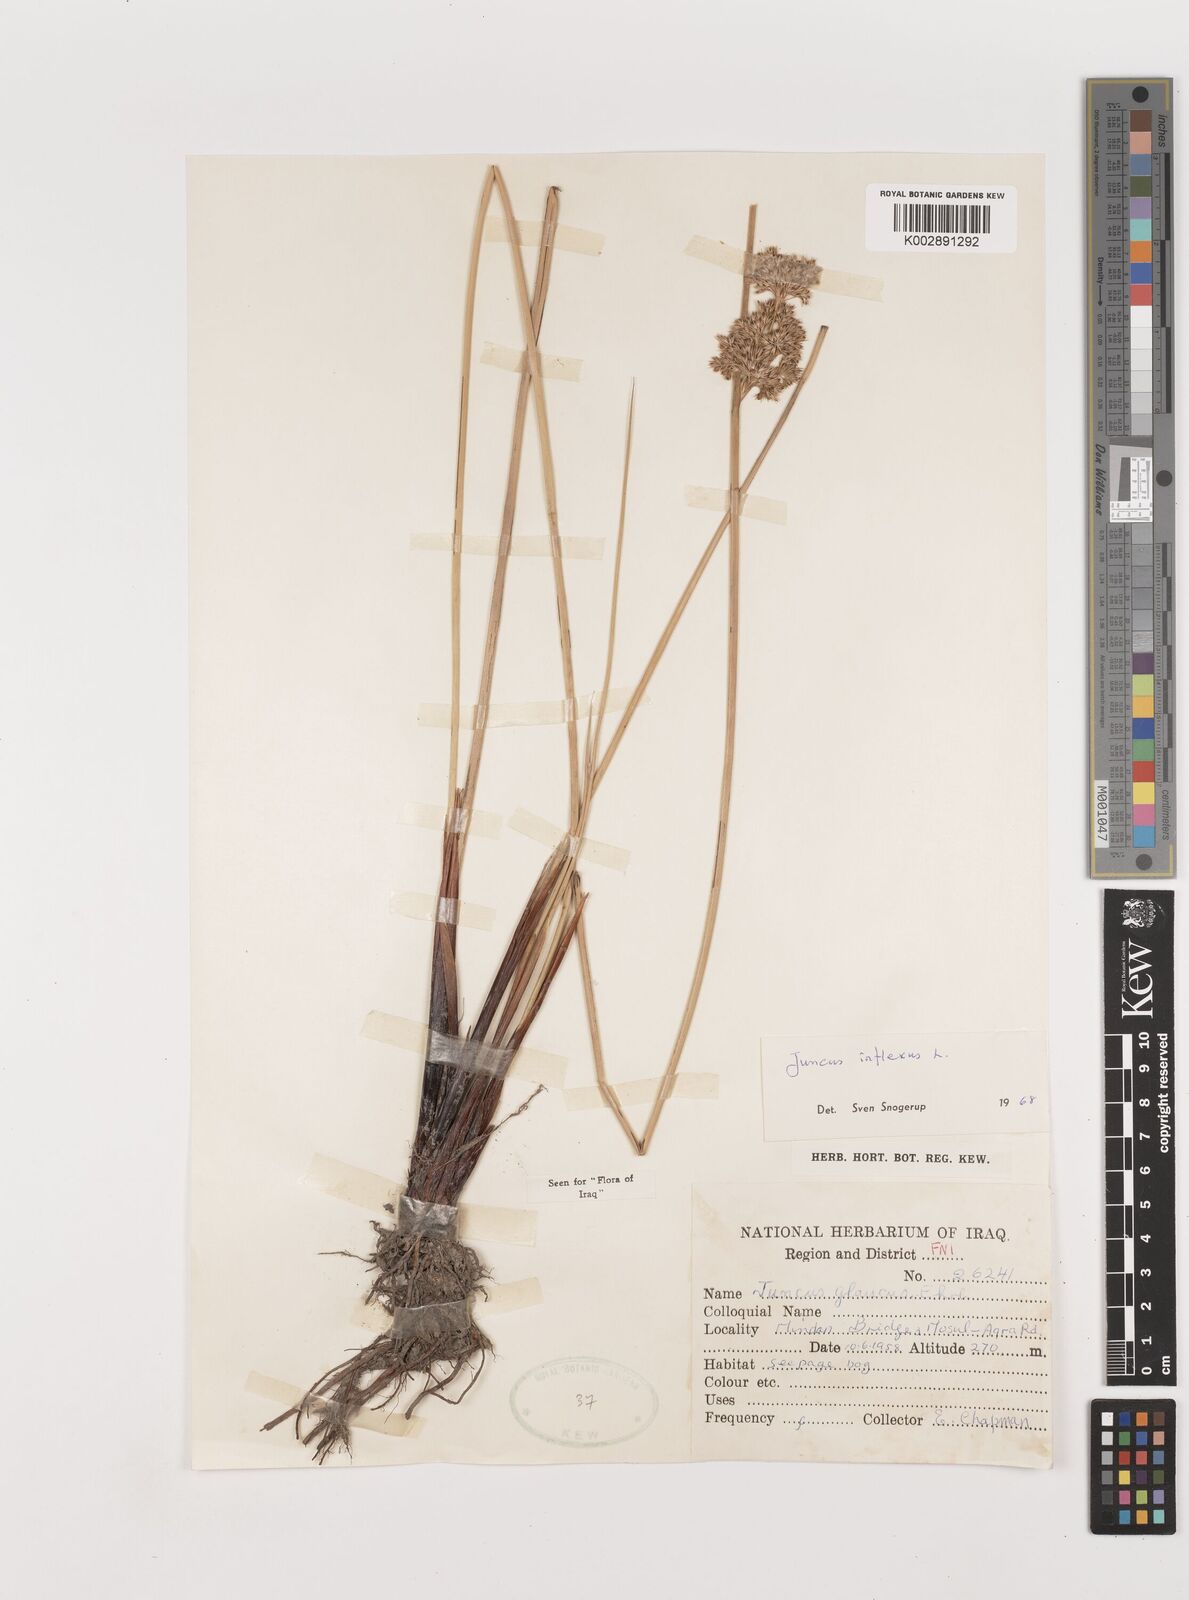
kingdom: Plantae
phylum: Tracheophyta
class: Liliopsida
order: Poales
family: Juncaceae
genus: Juncus
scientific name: Juncus inflexus
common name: Hard rush
